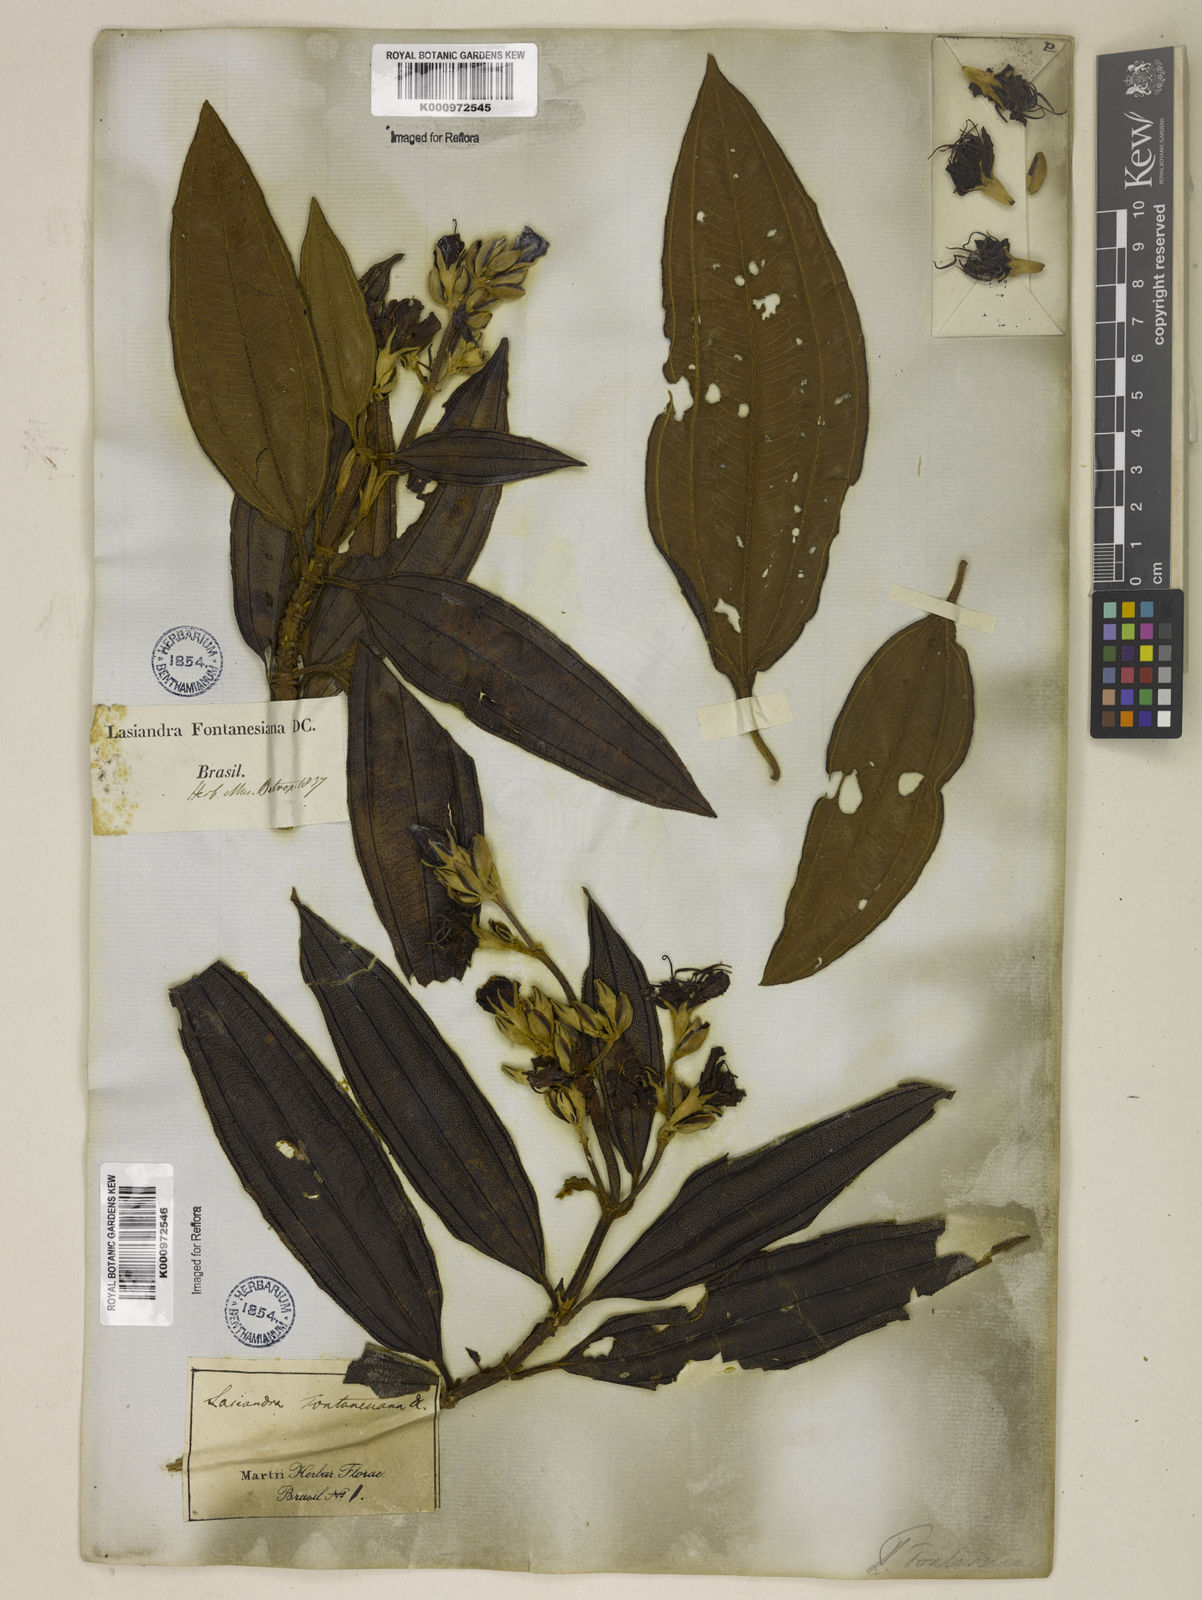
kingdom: Plantae
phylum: Tracheophyta
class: Magnoliopsida
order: Myrtales
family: Melastomataceae
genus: Pleroma
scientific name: Pleroma granulosum
